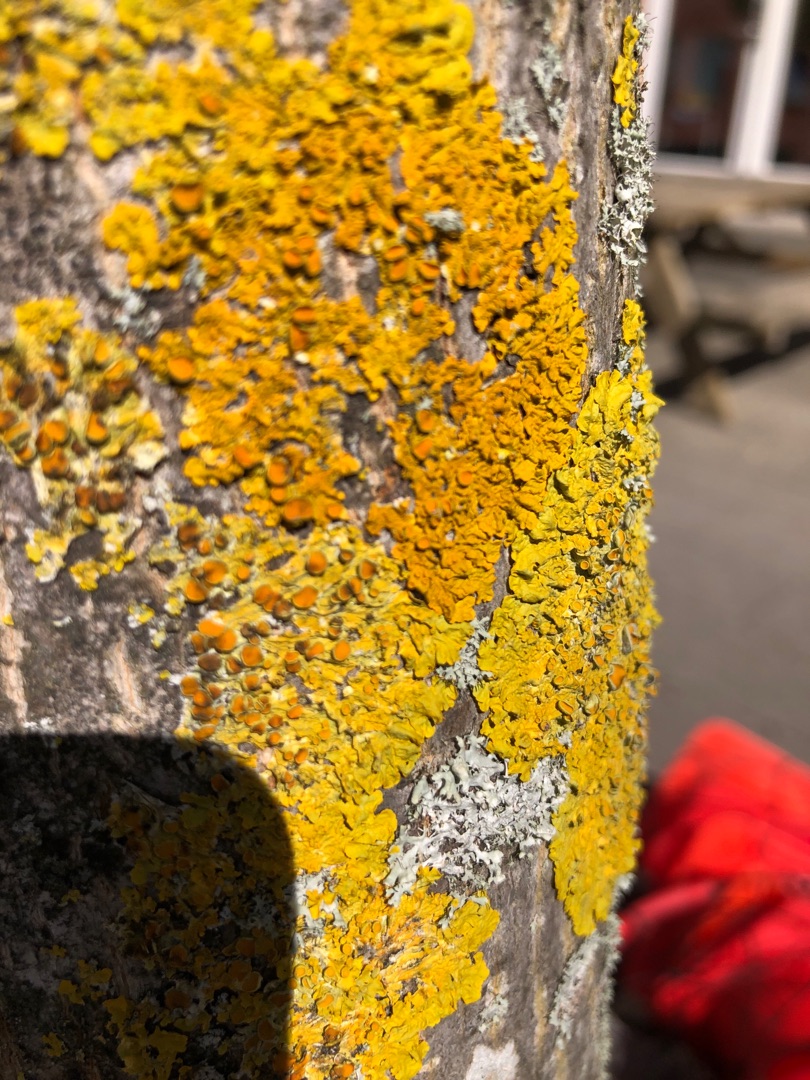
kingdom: Fungi
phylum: Ascomycota
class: Lecanoromycetes
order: Teloschistales
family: Teloschistaceae
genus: Xanthoria
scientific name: Xanthoria parietina
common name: Almindelig væggelav
